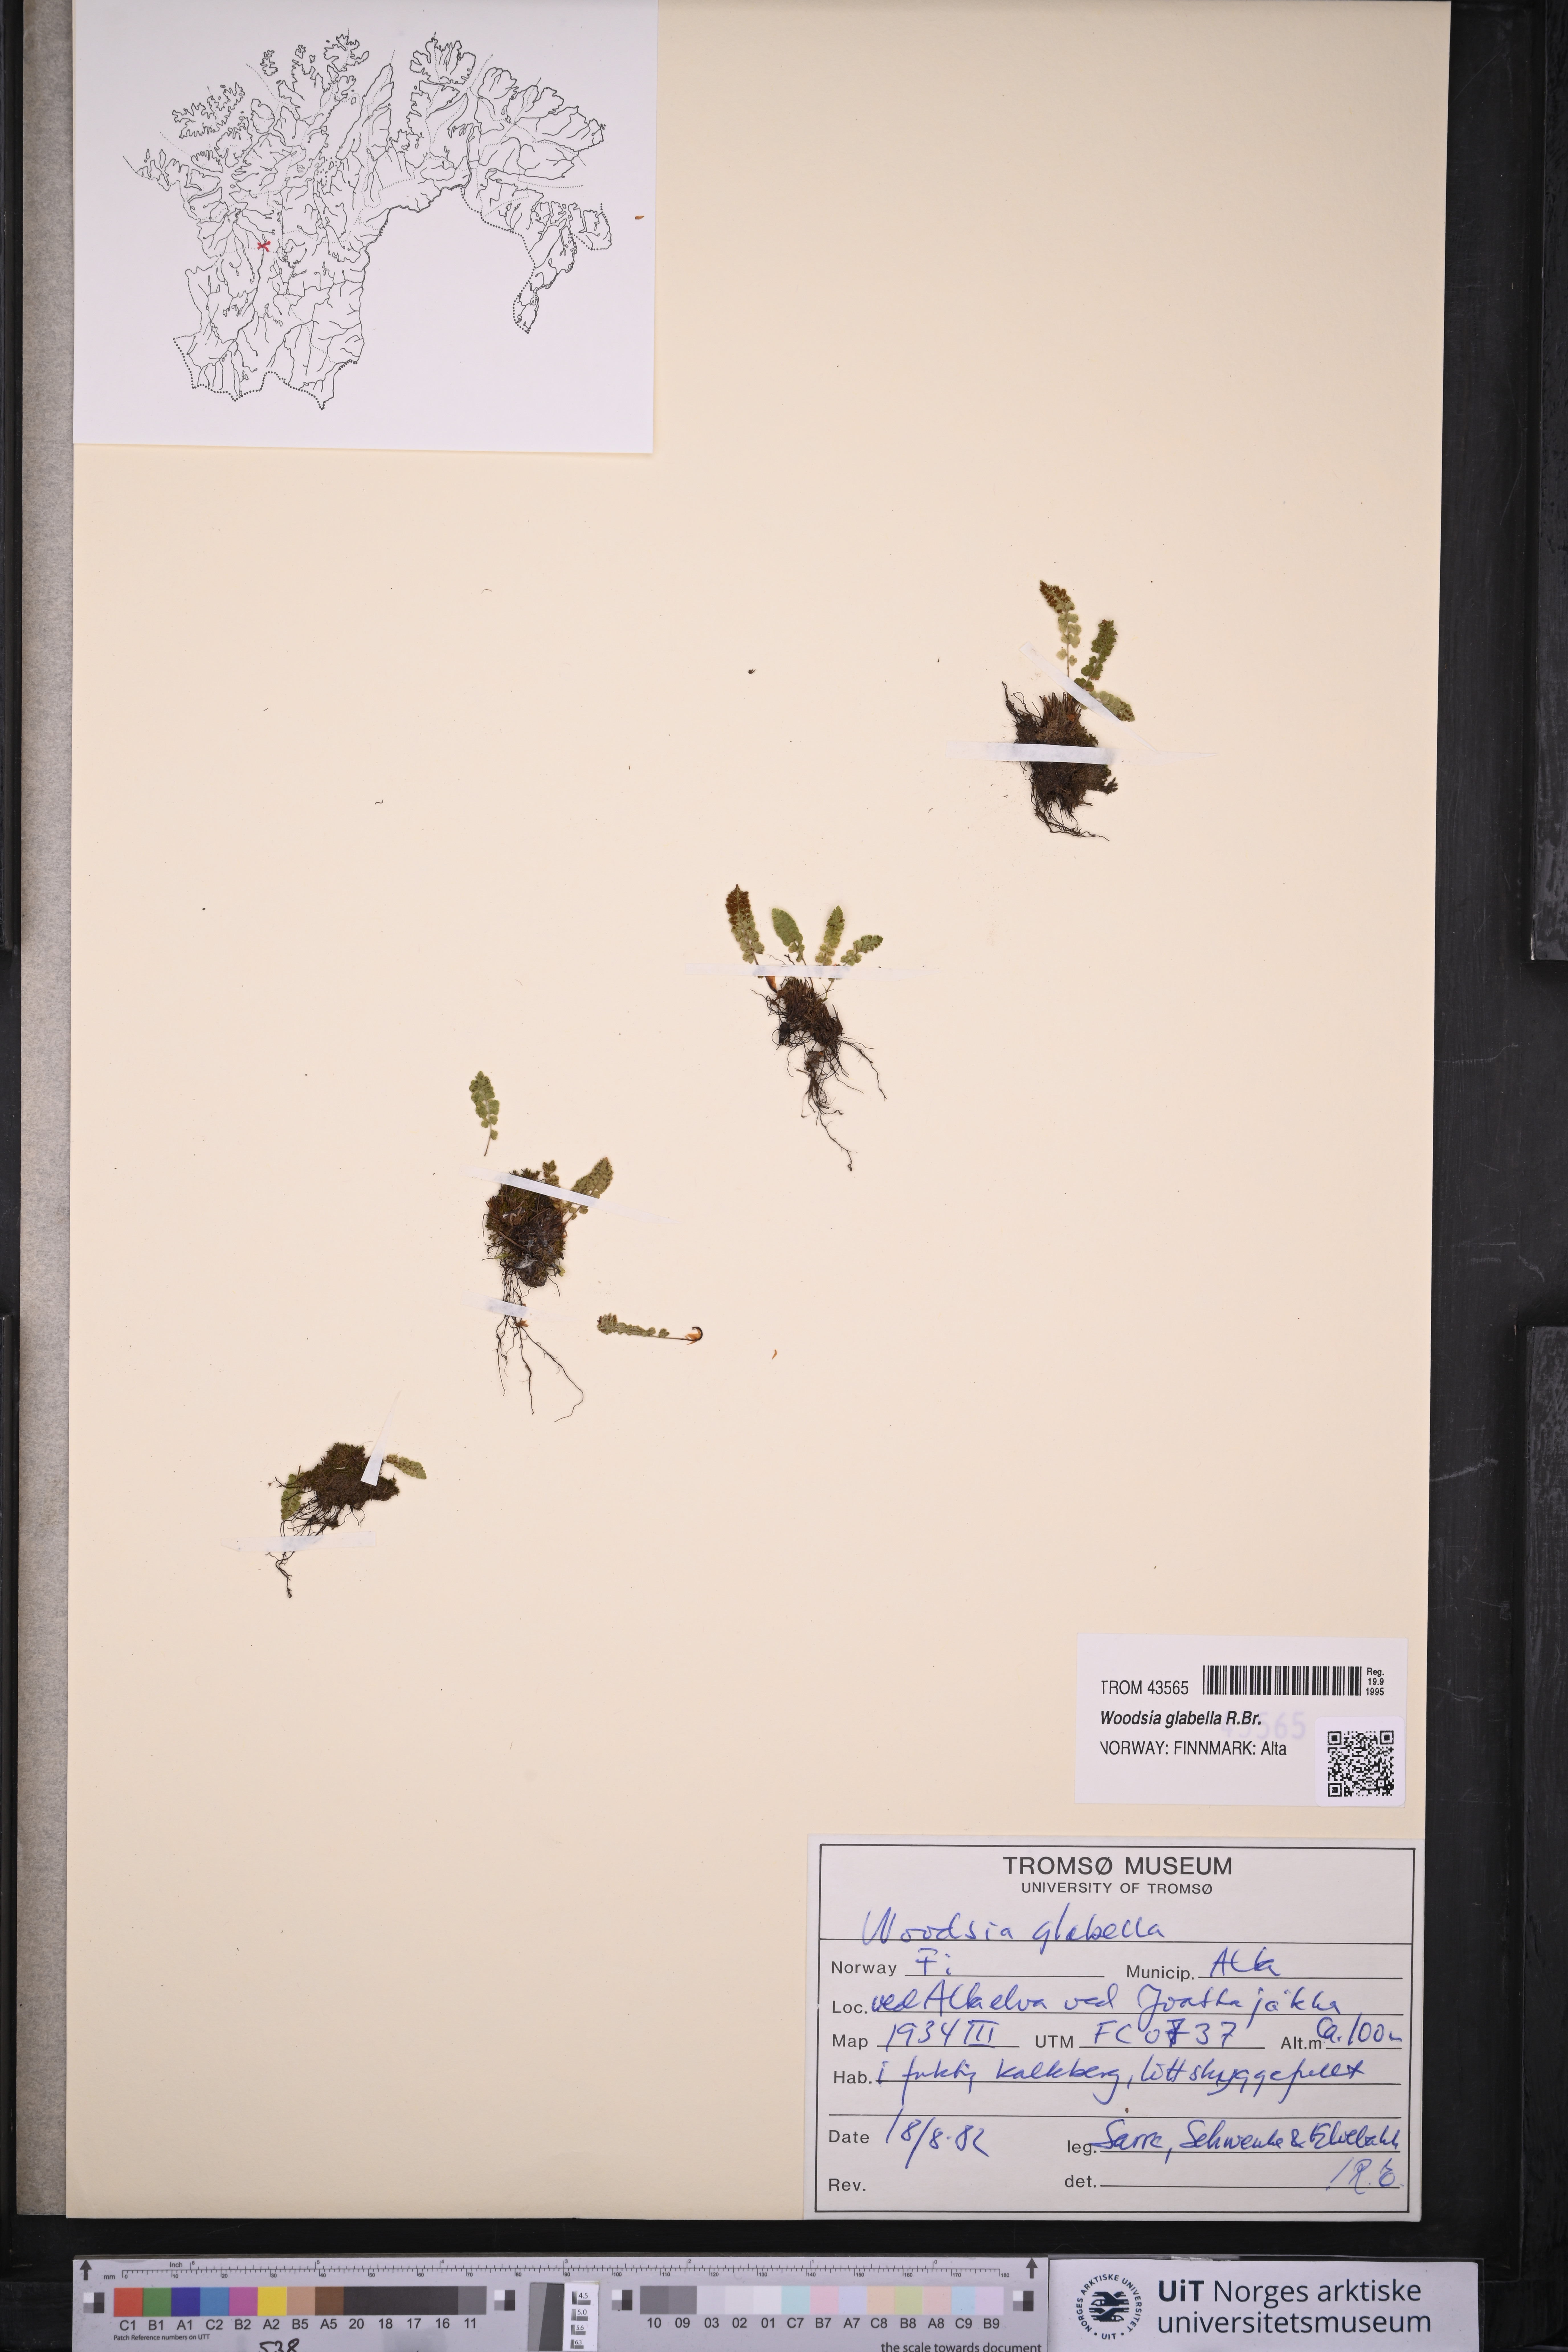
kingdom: Plantae
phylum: Tracheophyta
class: Polypodiopsida
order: Polypodiales
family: Woodsiaceae
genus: Woodsia
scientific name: Woodsia glabella
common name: Smooth woodsia
